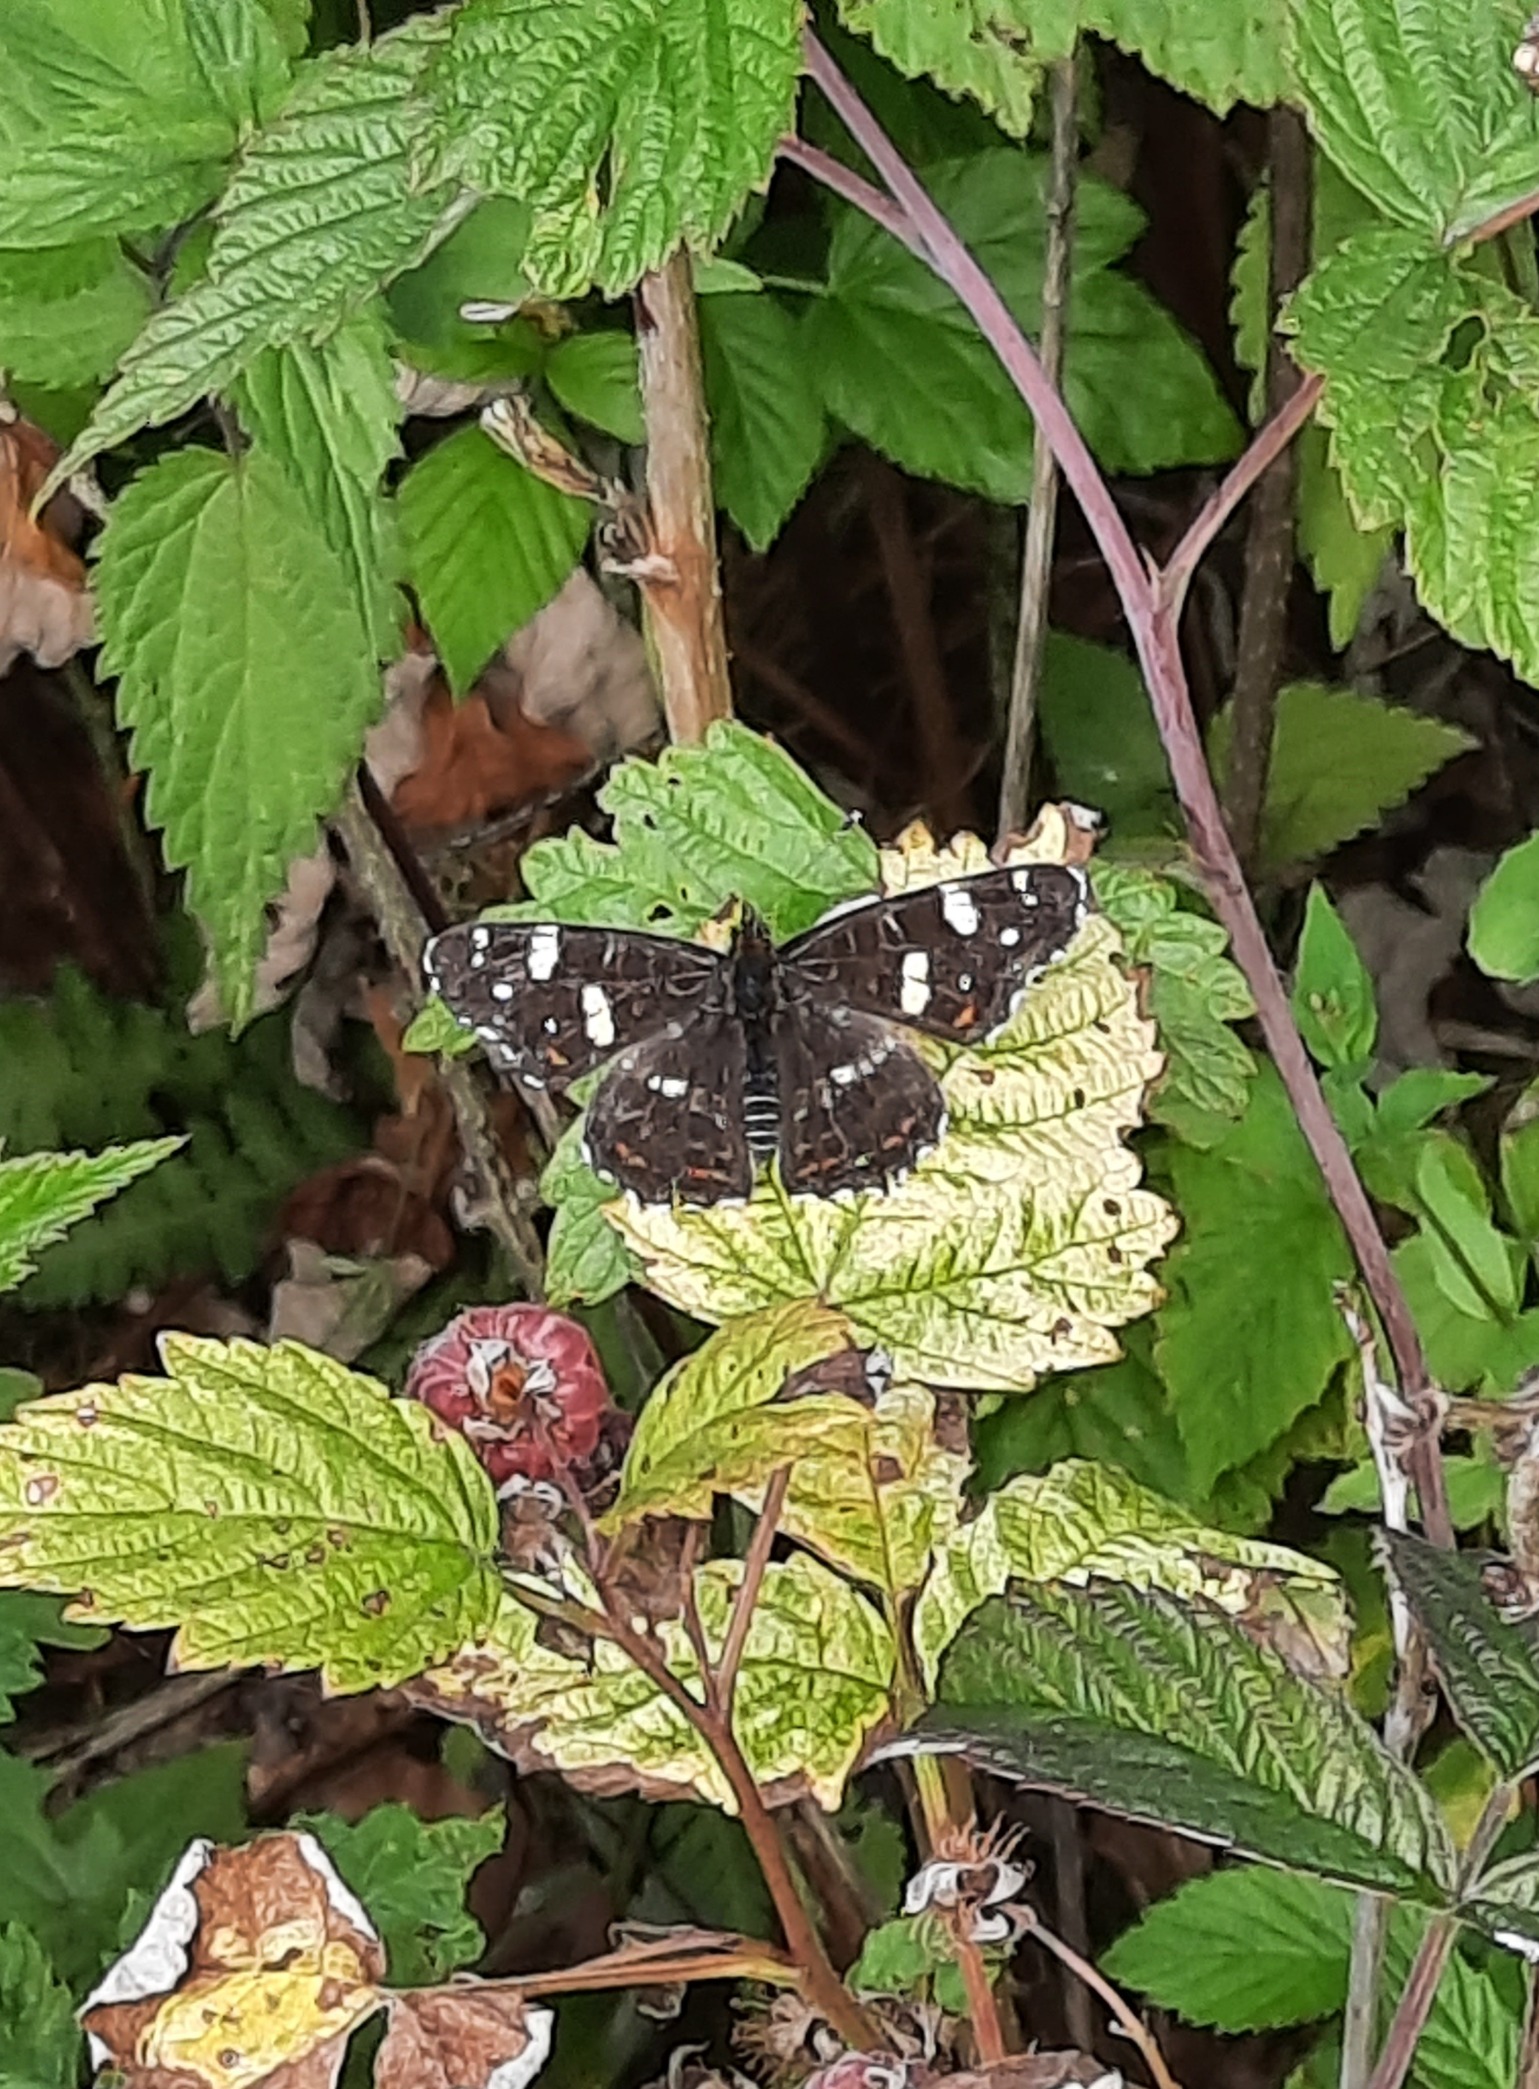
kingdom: Animalia
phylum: Arthropoda
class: Insecta
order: Lepidoptera
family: Nymphalidae
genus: Araschnia
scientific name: Araschnia levana
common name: Nældesommerfugl
